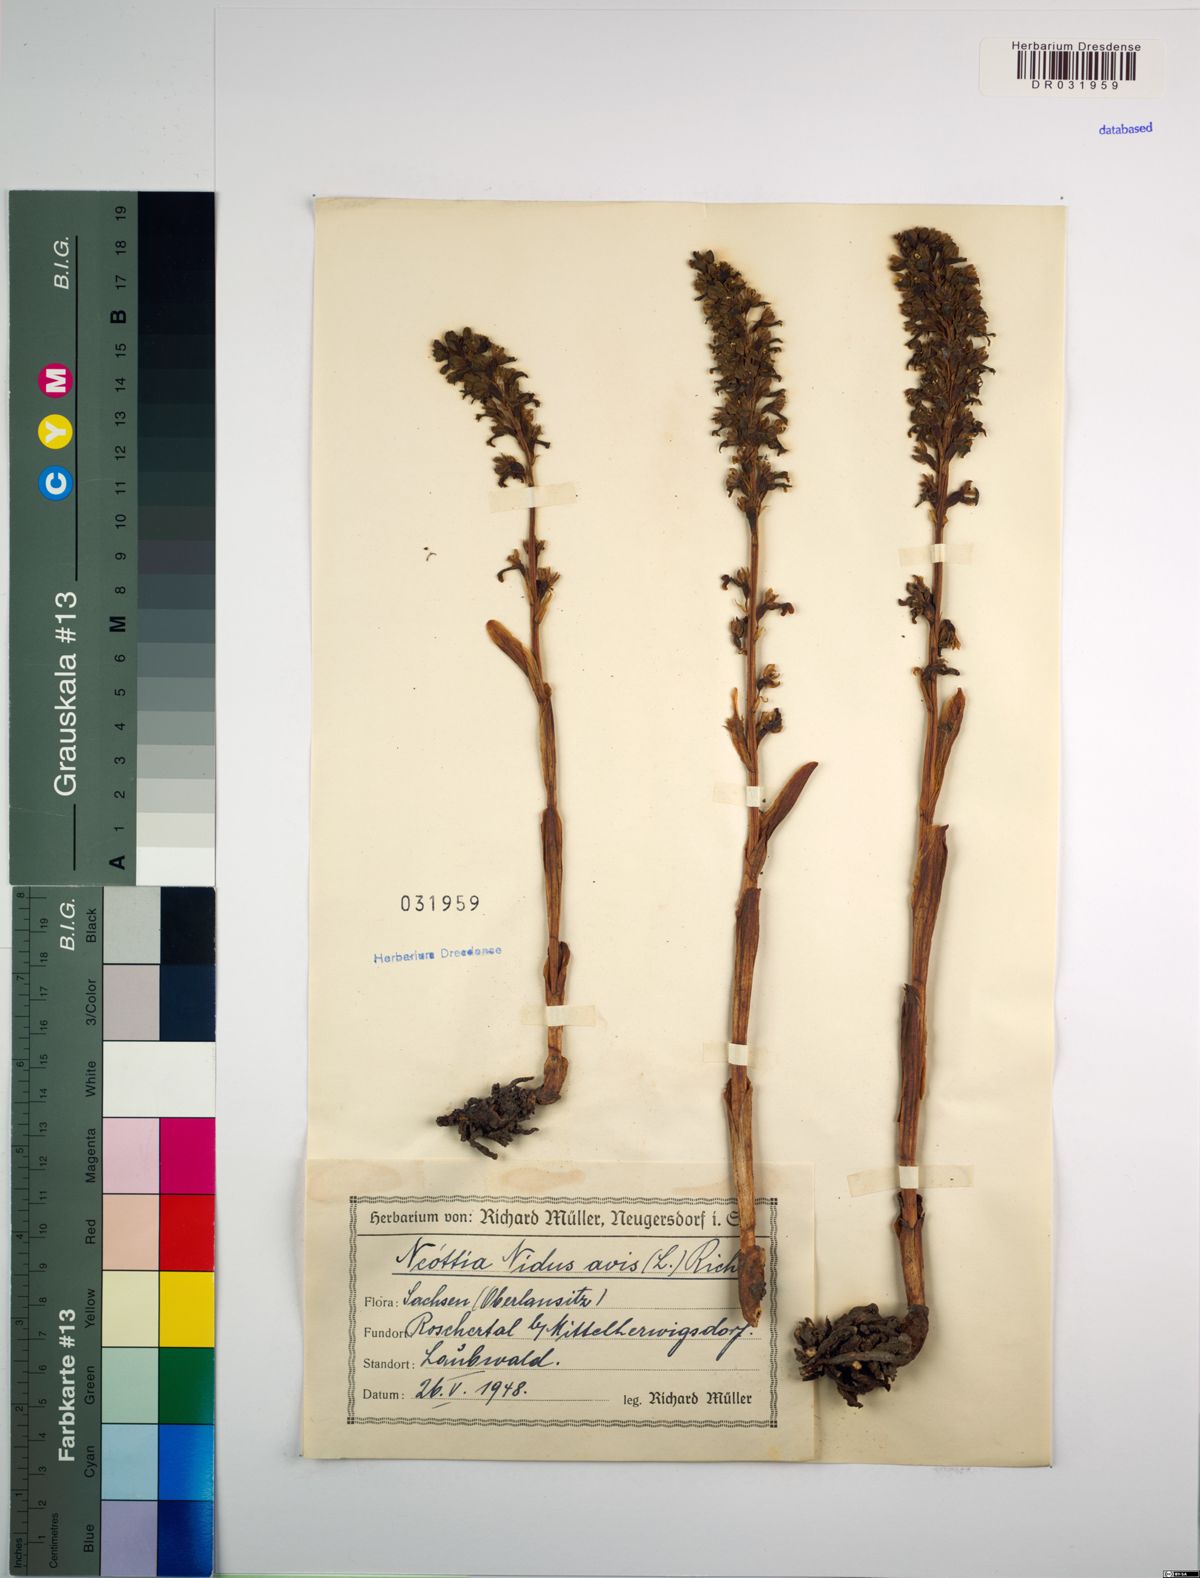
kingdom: Plantae
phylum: Tracheophyta
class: Liliopsida
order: Asparagales
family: Orchidaceae
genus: Neottia
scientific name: Neottia nidus-avis
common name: Bird's-nest orchid
